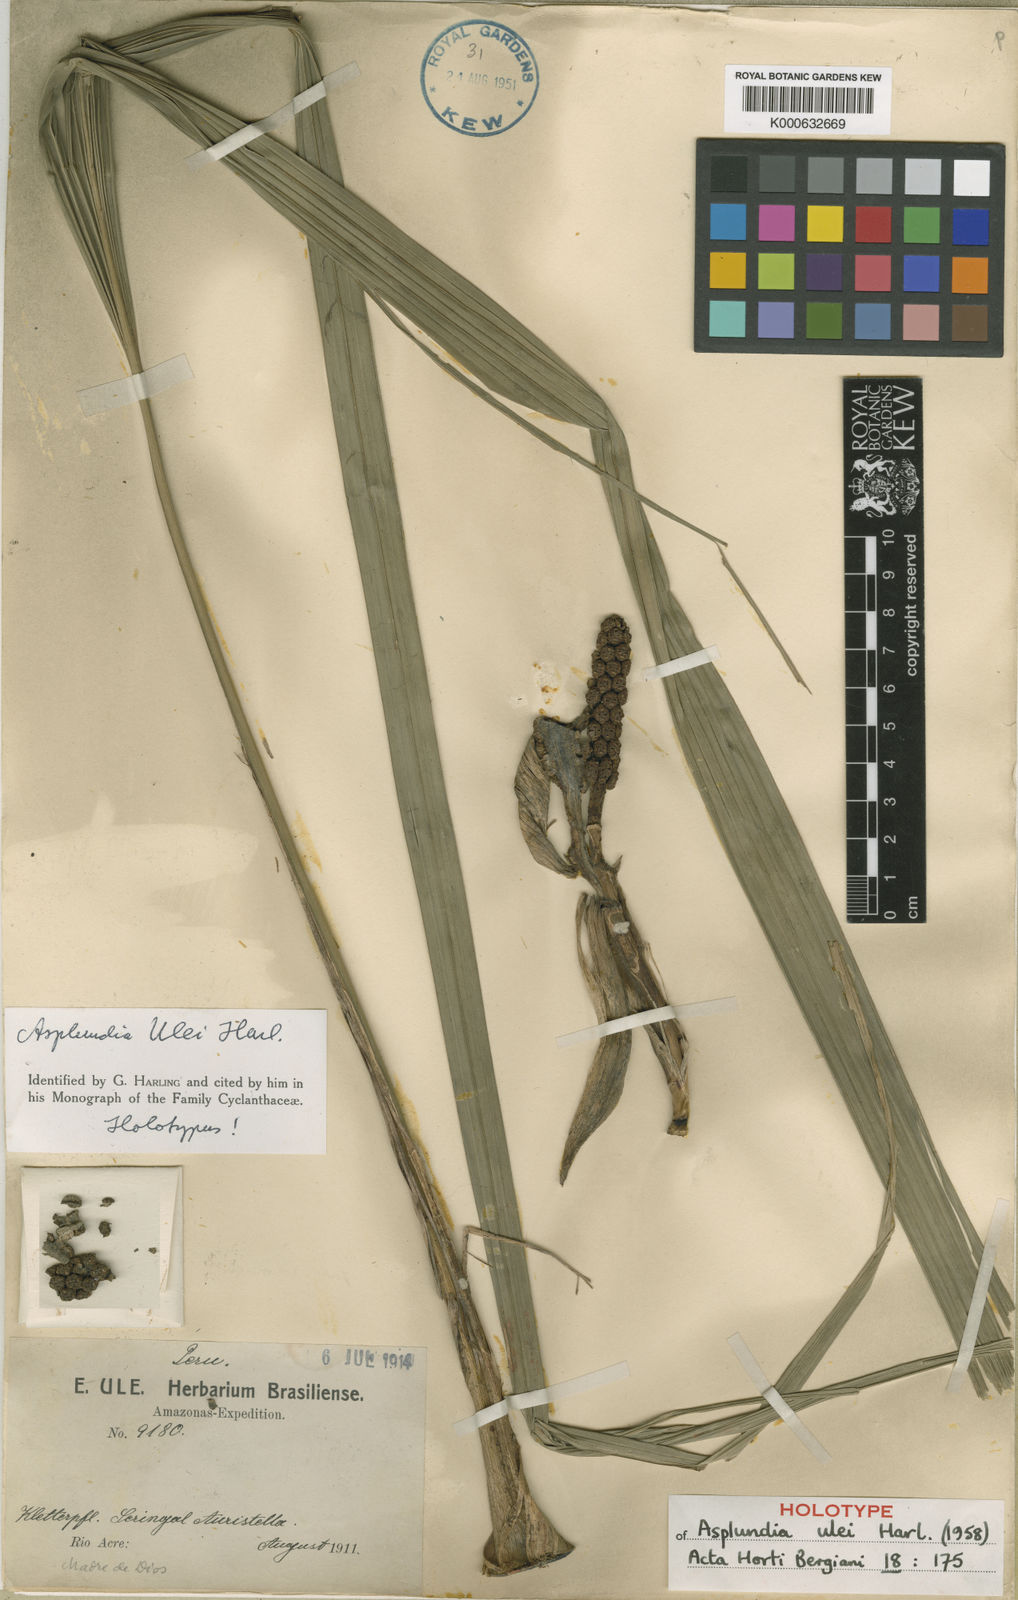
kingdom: Plantae
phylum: Tracheophyta
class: Liliopsida
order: Pandanales
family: Cyclanthaceae
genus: Asplundia
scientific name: Asplundia ulei
